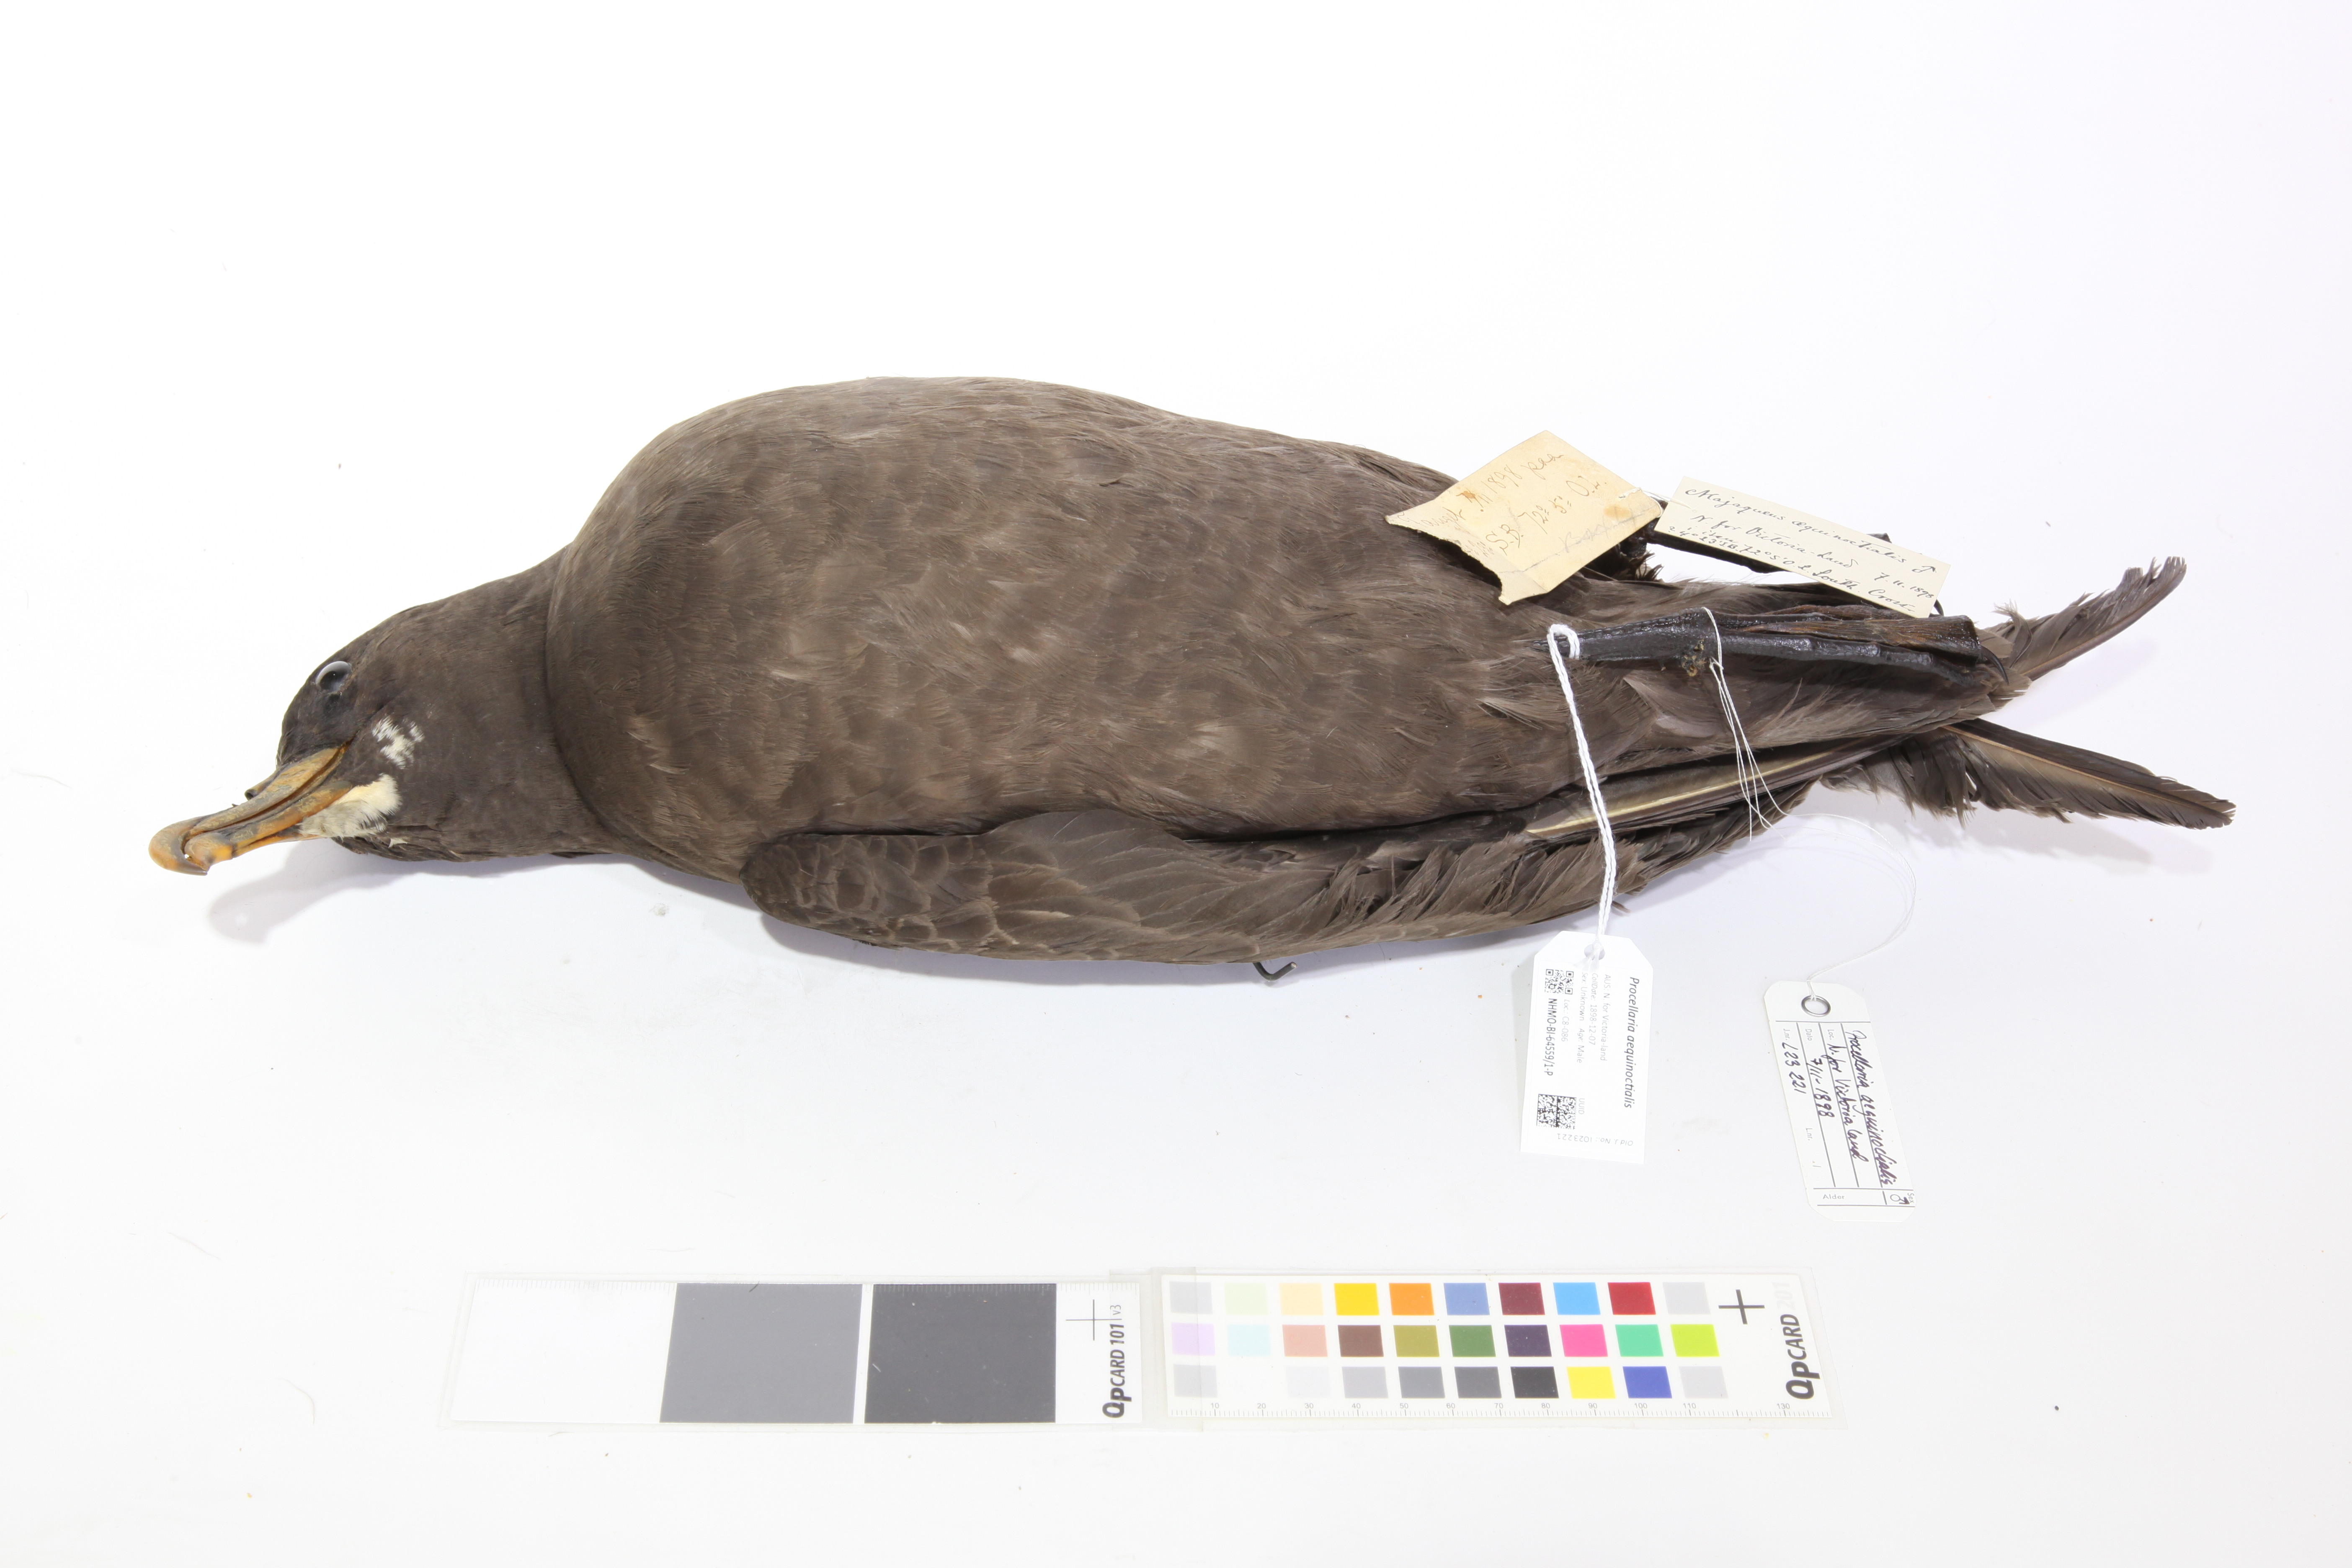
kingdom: Animalia
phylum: Chordata
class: Aves
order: Procellariiformes
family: Procellariidae
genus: Procellaria
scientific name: Procellaria aequinoctialis
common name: White-chinned petrel
